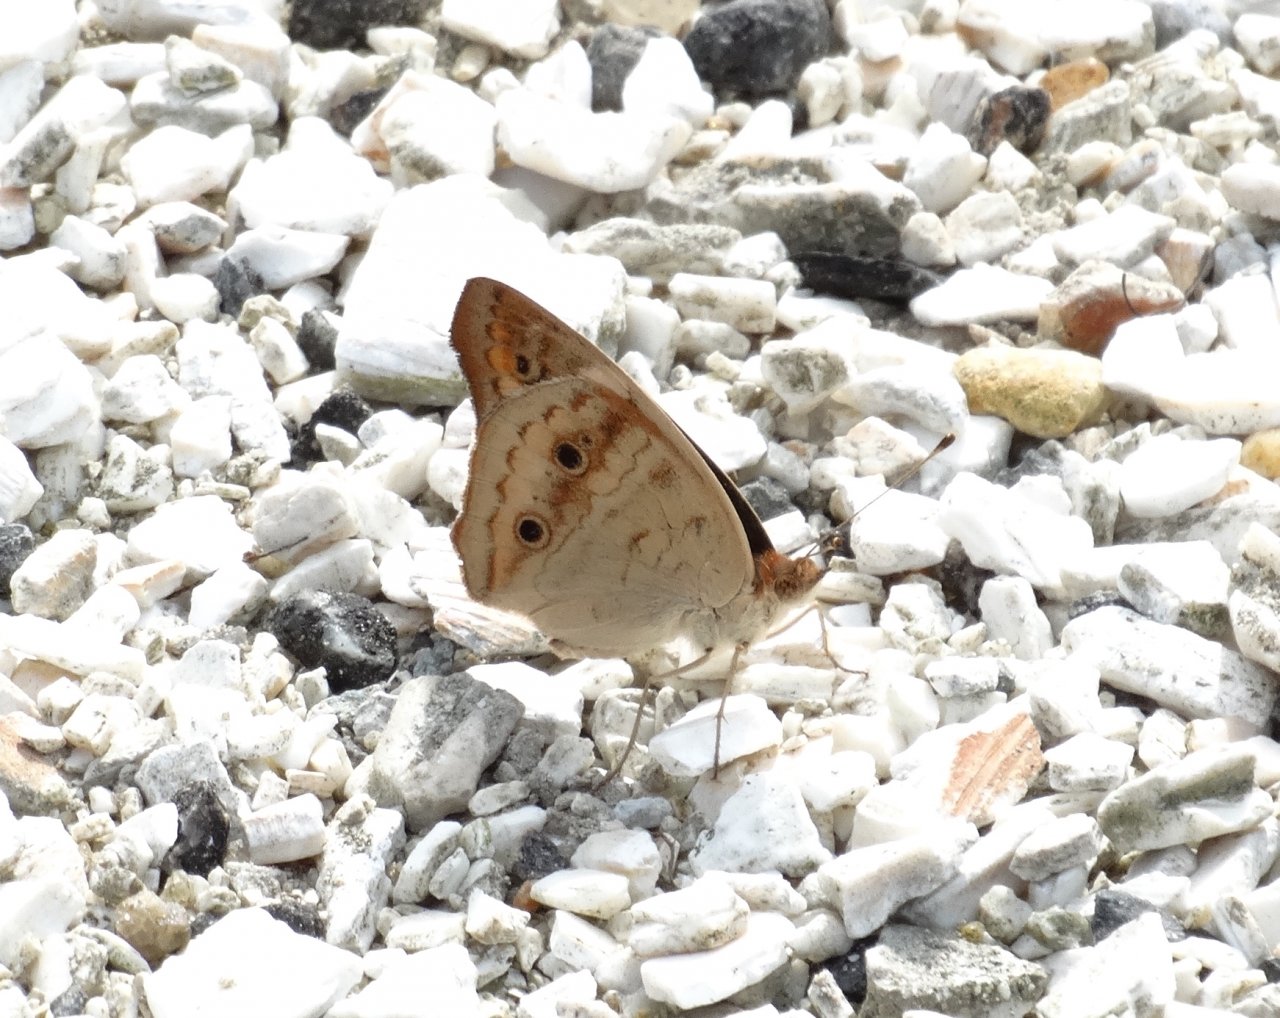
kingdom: Animalia
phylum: Arthropoda
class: Insecta
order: Lepidoptera
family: Nymphalidae
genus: Junonia
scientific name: Junonia coenia
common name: Common Buckeye
